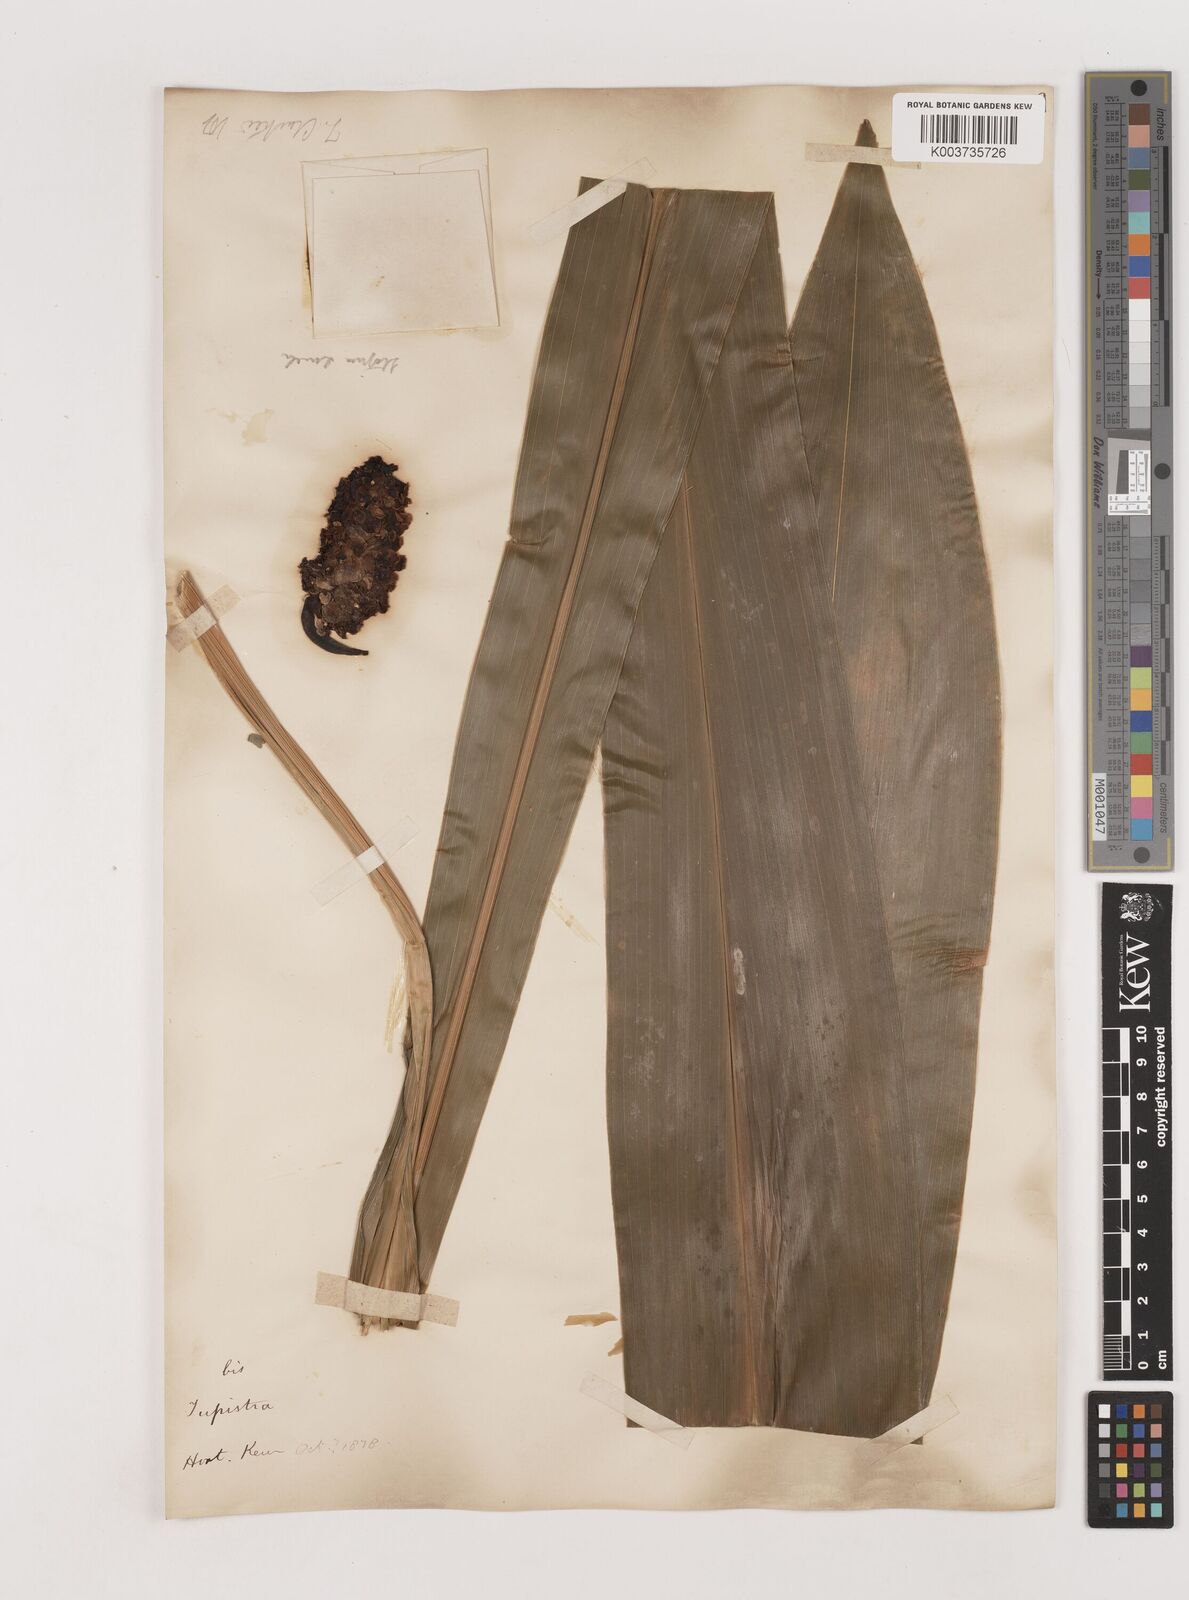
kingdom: Plantae
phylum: Tracheophyta
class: Liliopsida
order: Asparagales
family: Asparagaceae
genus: Tupistra
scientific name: Tupistra clarkei
